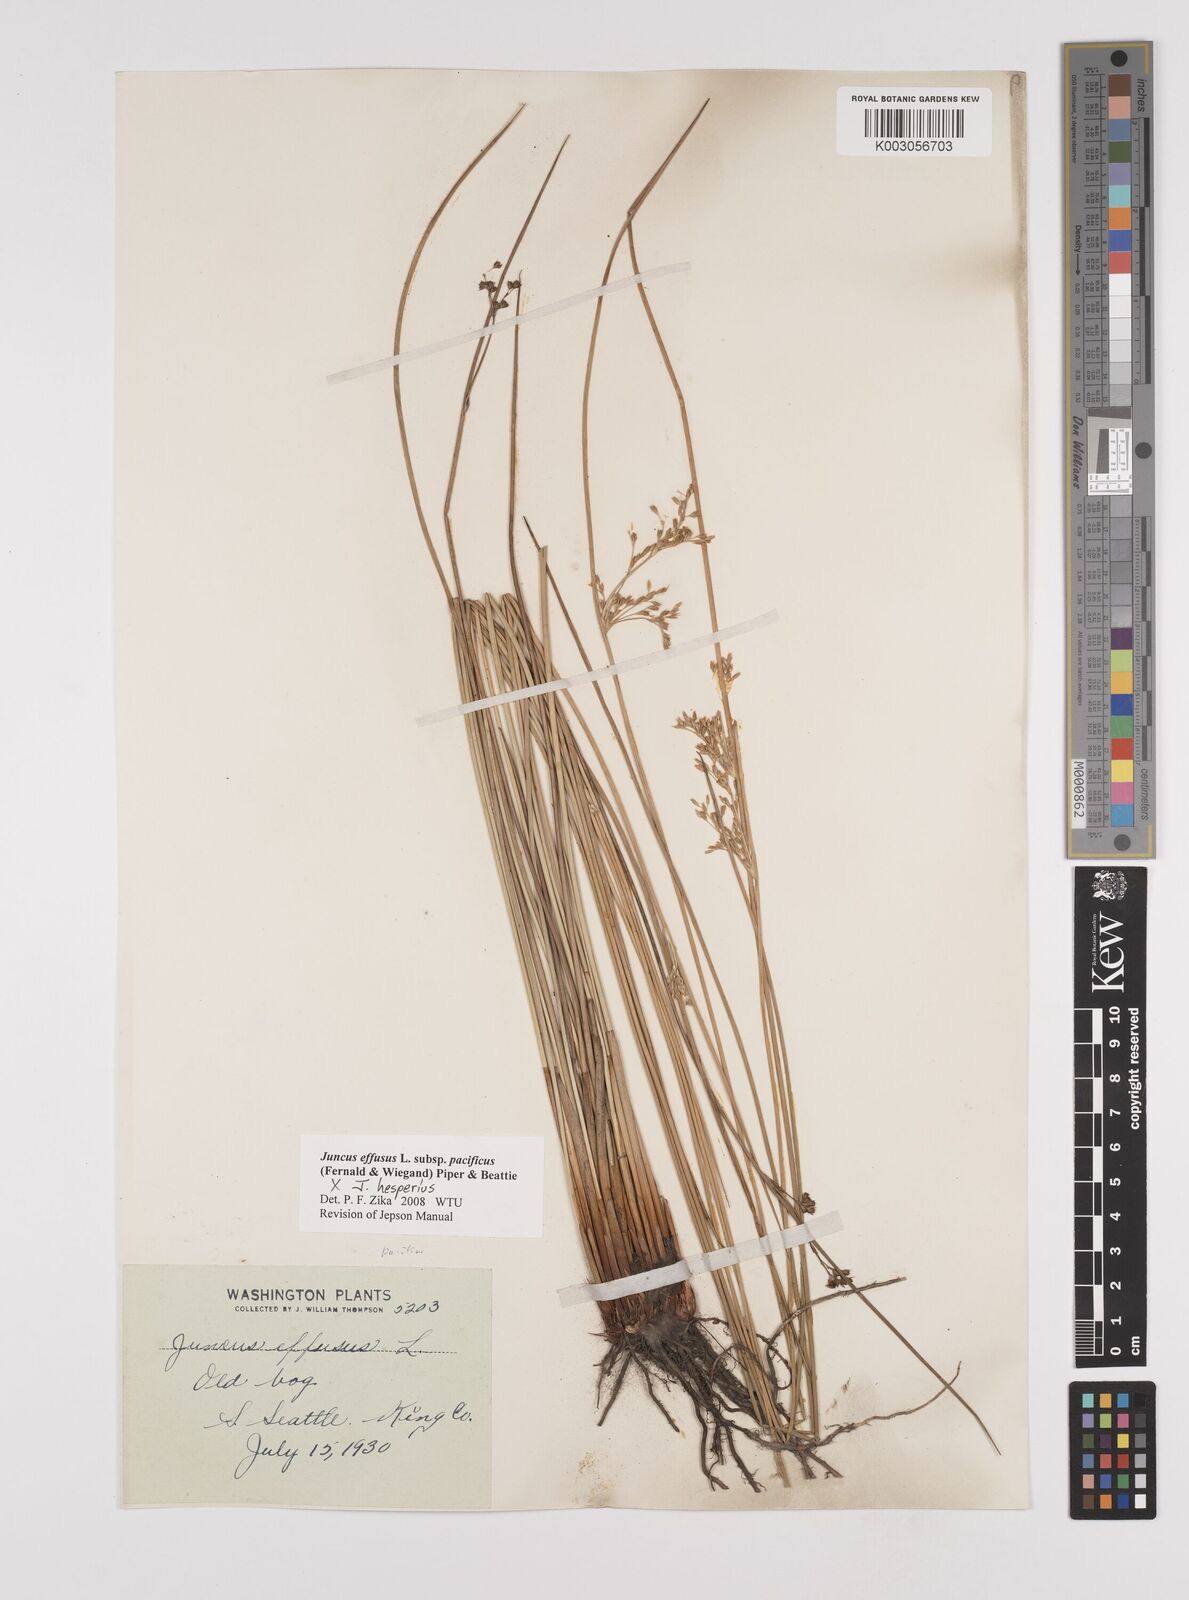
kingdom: Plantae
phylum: Tracheophyta
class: Liliopsida
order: Poales
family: Juncaceae
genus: Juncus
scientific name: Juncus effusus
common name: Soft rush
